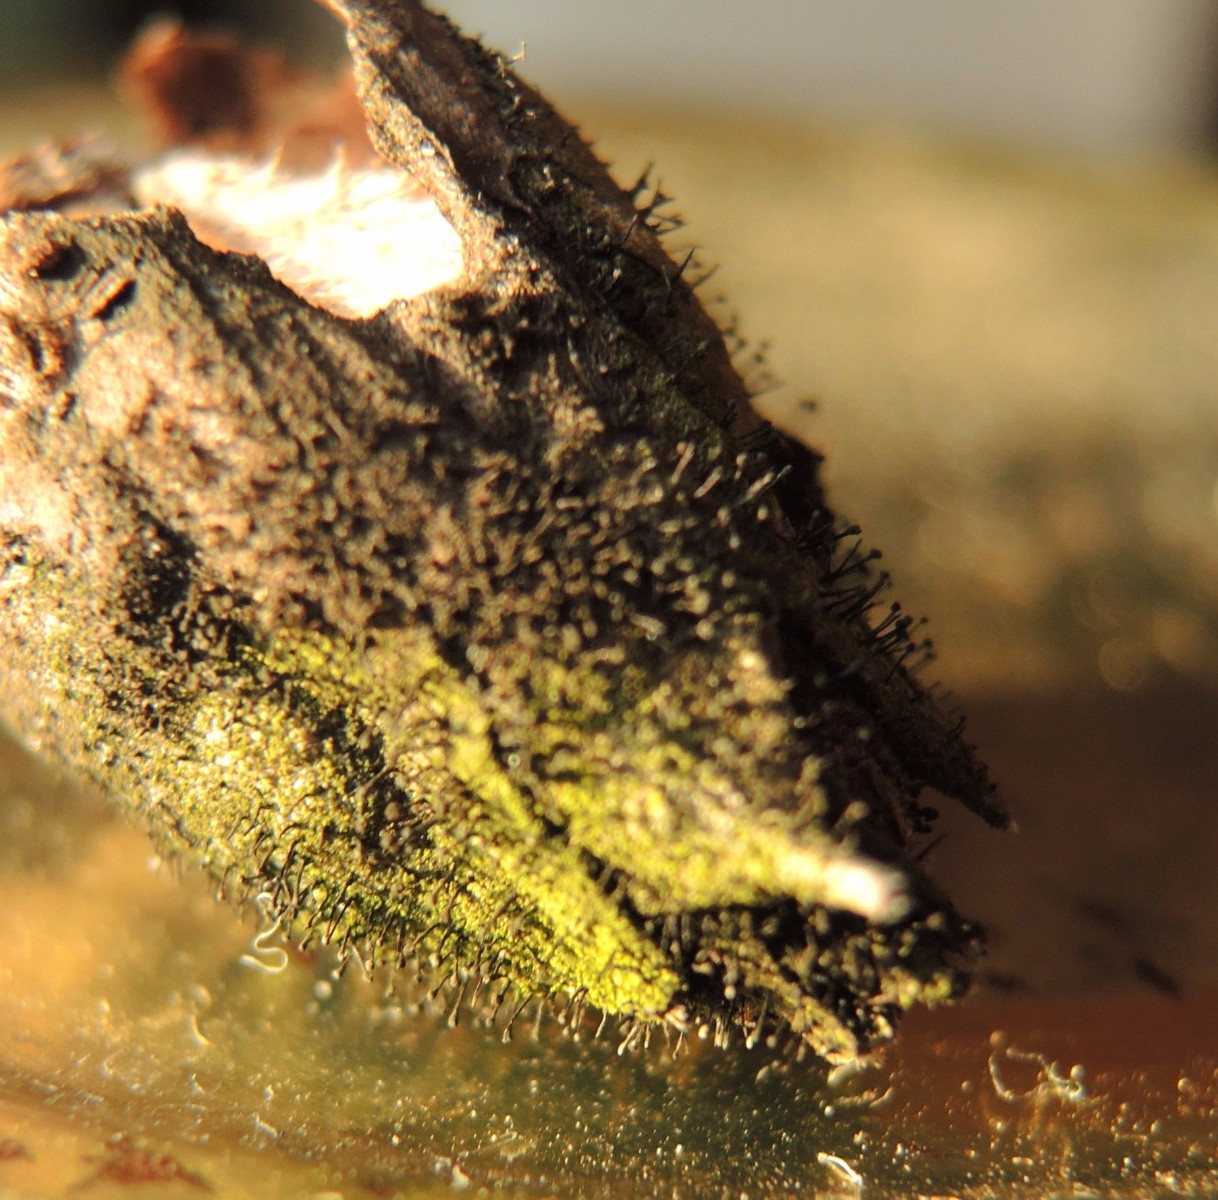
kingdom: Fungi
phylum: Ascomycota
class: Dothideomycetes
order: Pleosporales
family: Melanommataceae
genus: Seifertia
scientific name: Seifertia azaleae
